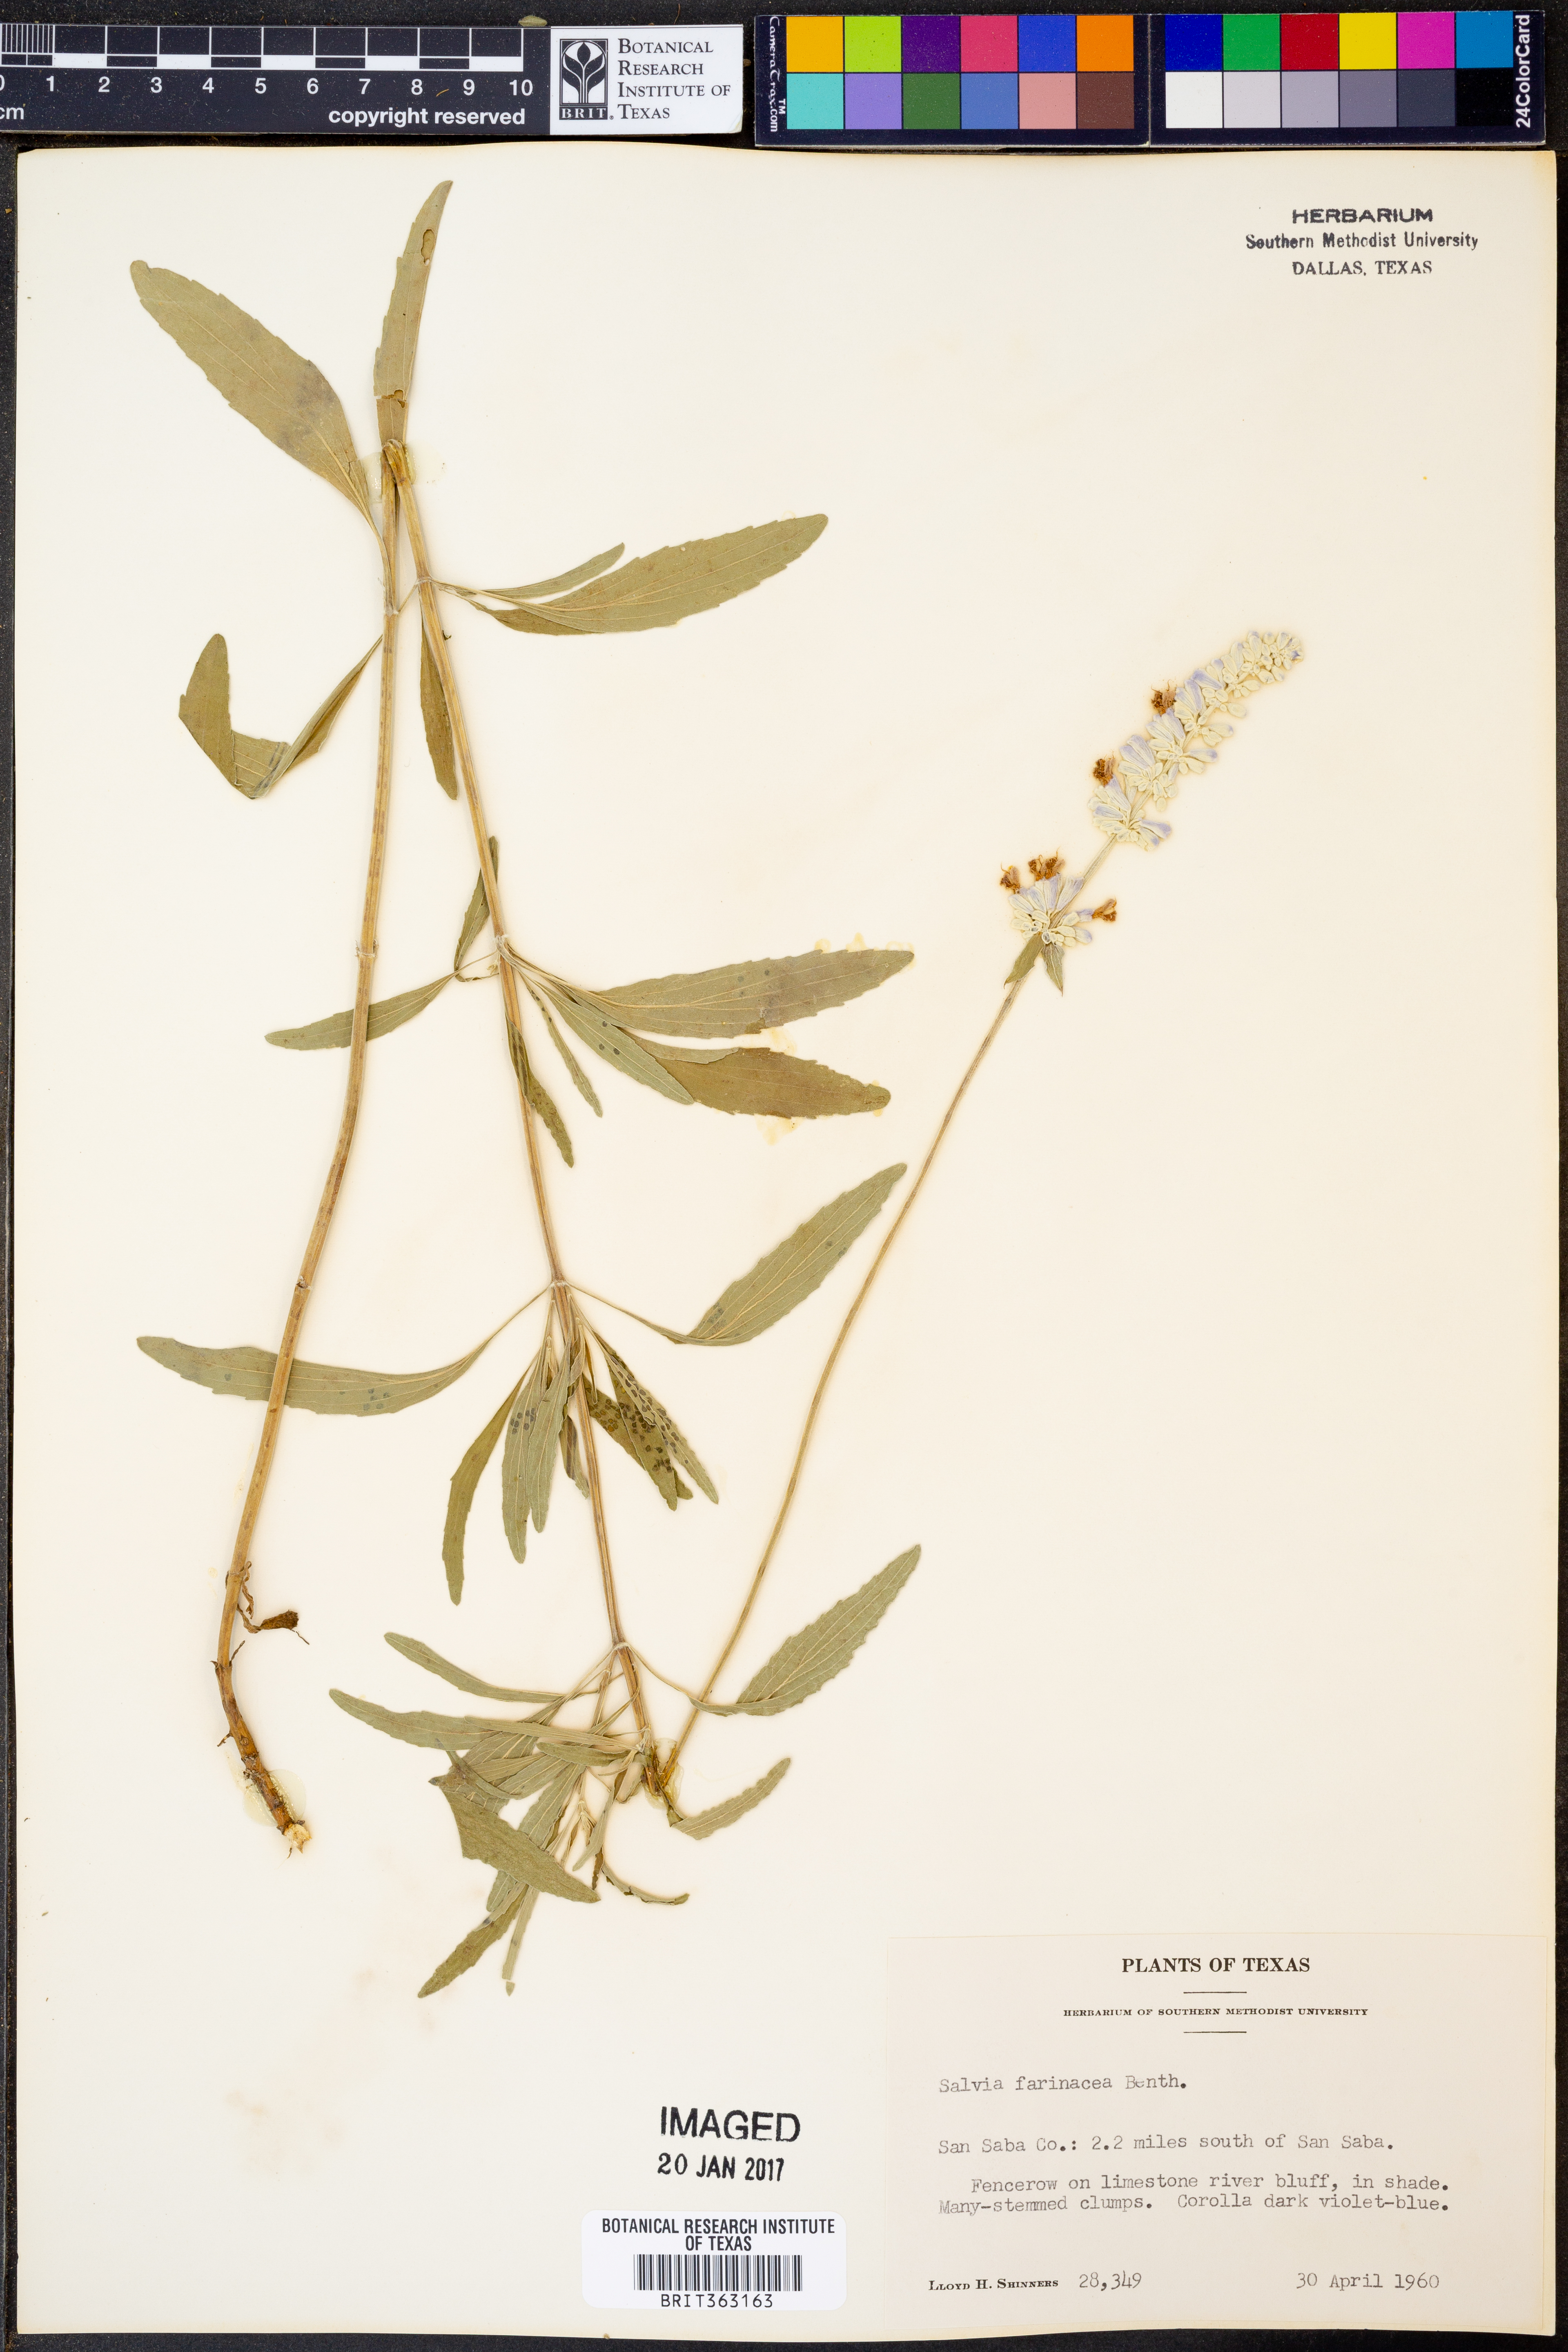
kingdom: Plantae
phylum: Tracheophyta
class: Magnoliopsida
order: Lamiales
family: Lamiaceae
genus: Salvia
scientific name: Salvia farinacea
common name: Mealy sage
